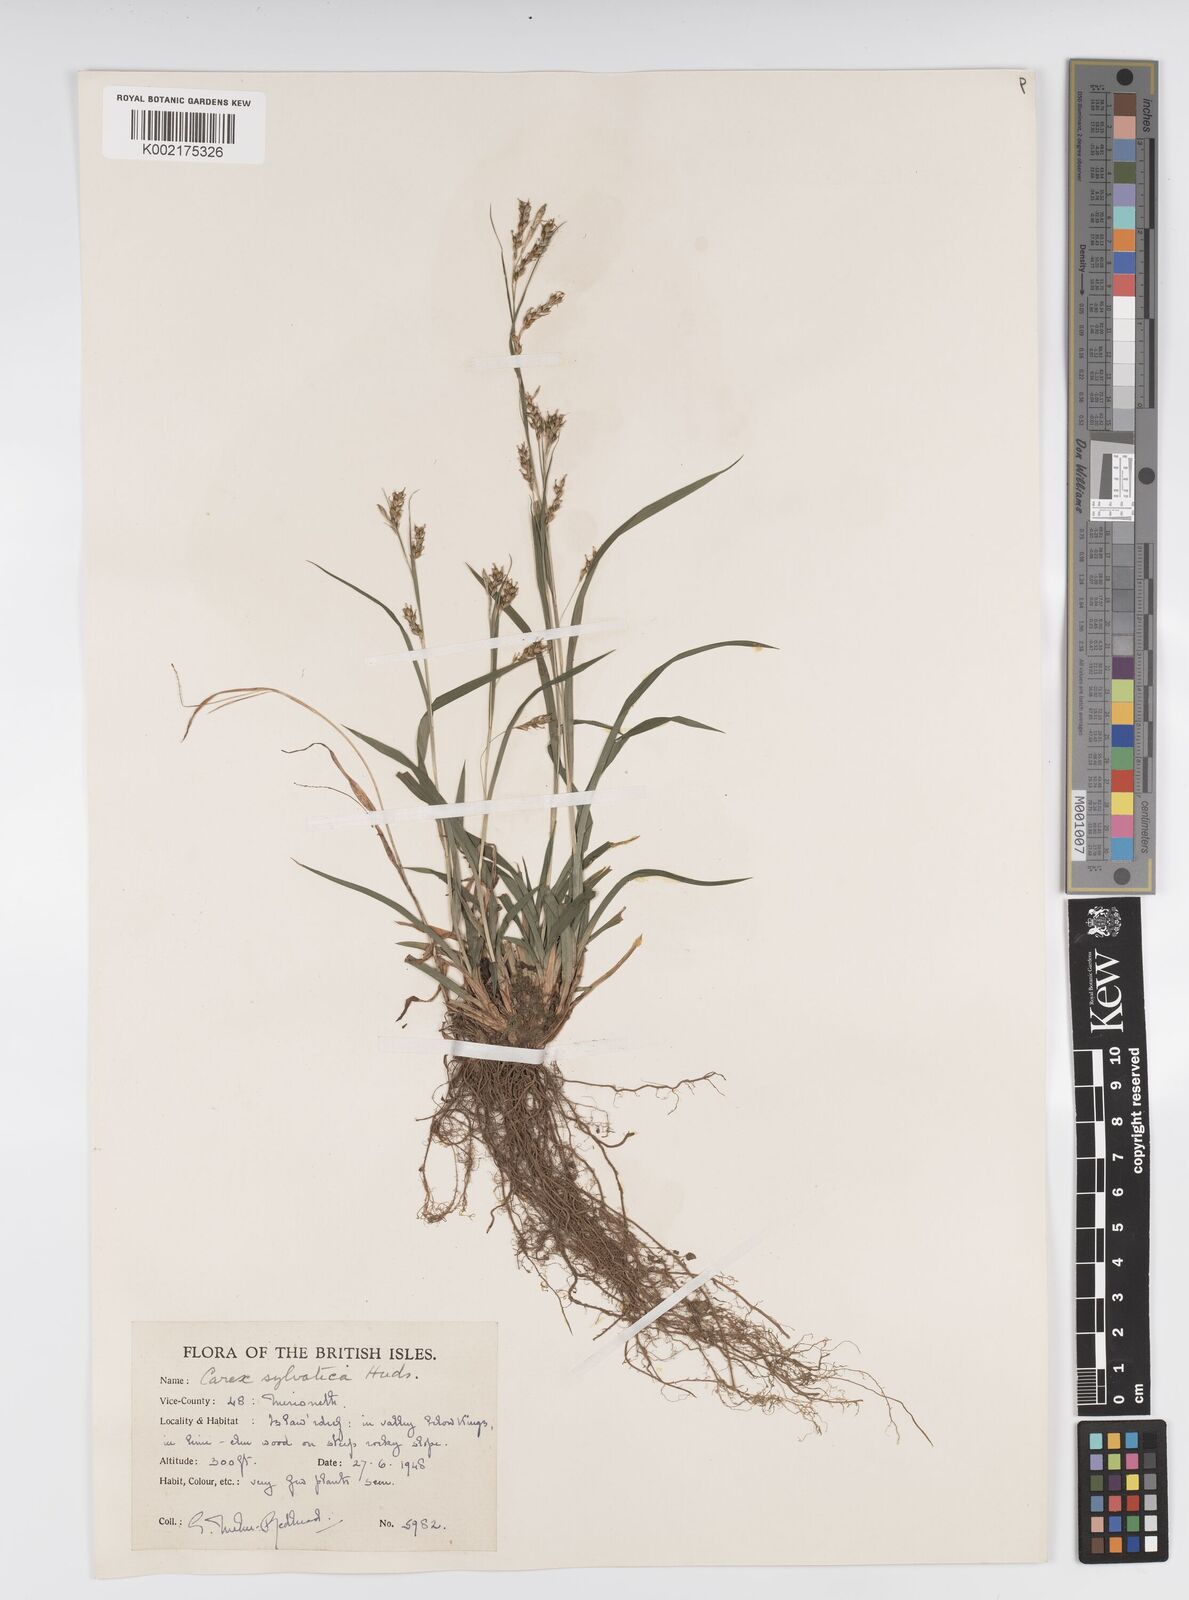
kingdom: Plantae
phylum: Tracheophyta
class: Liliopsida
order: Poales
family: Cyperaceae
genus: Carex
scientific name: Carex sylvatica
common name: Wood-sedge
